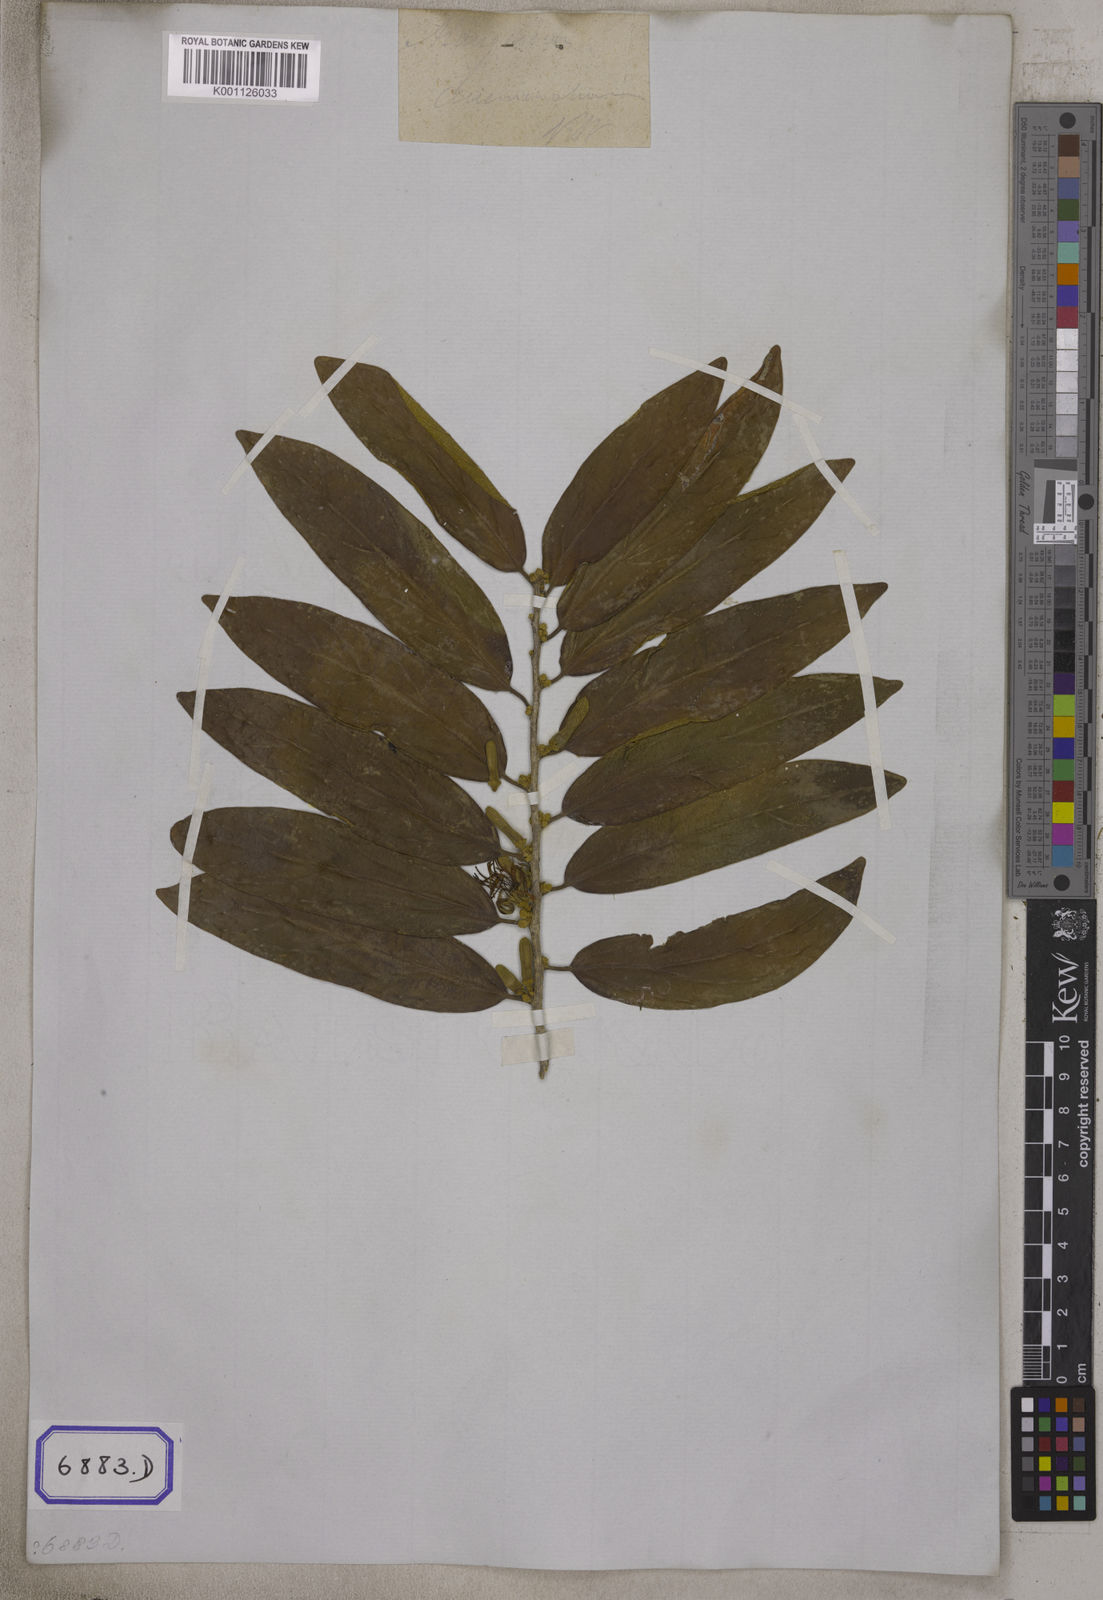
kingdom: Plantae
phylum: Tracheophyta
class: Magnoliopsida
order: Cornales
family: Cornaceae
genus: Alangium
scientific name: Alangium salviifolium
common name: Sage-leaf alangium
